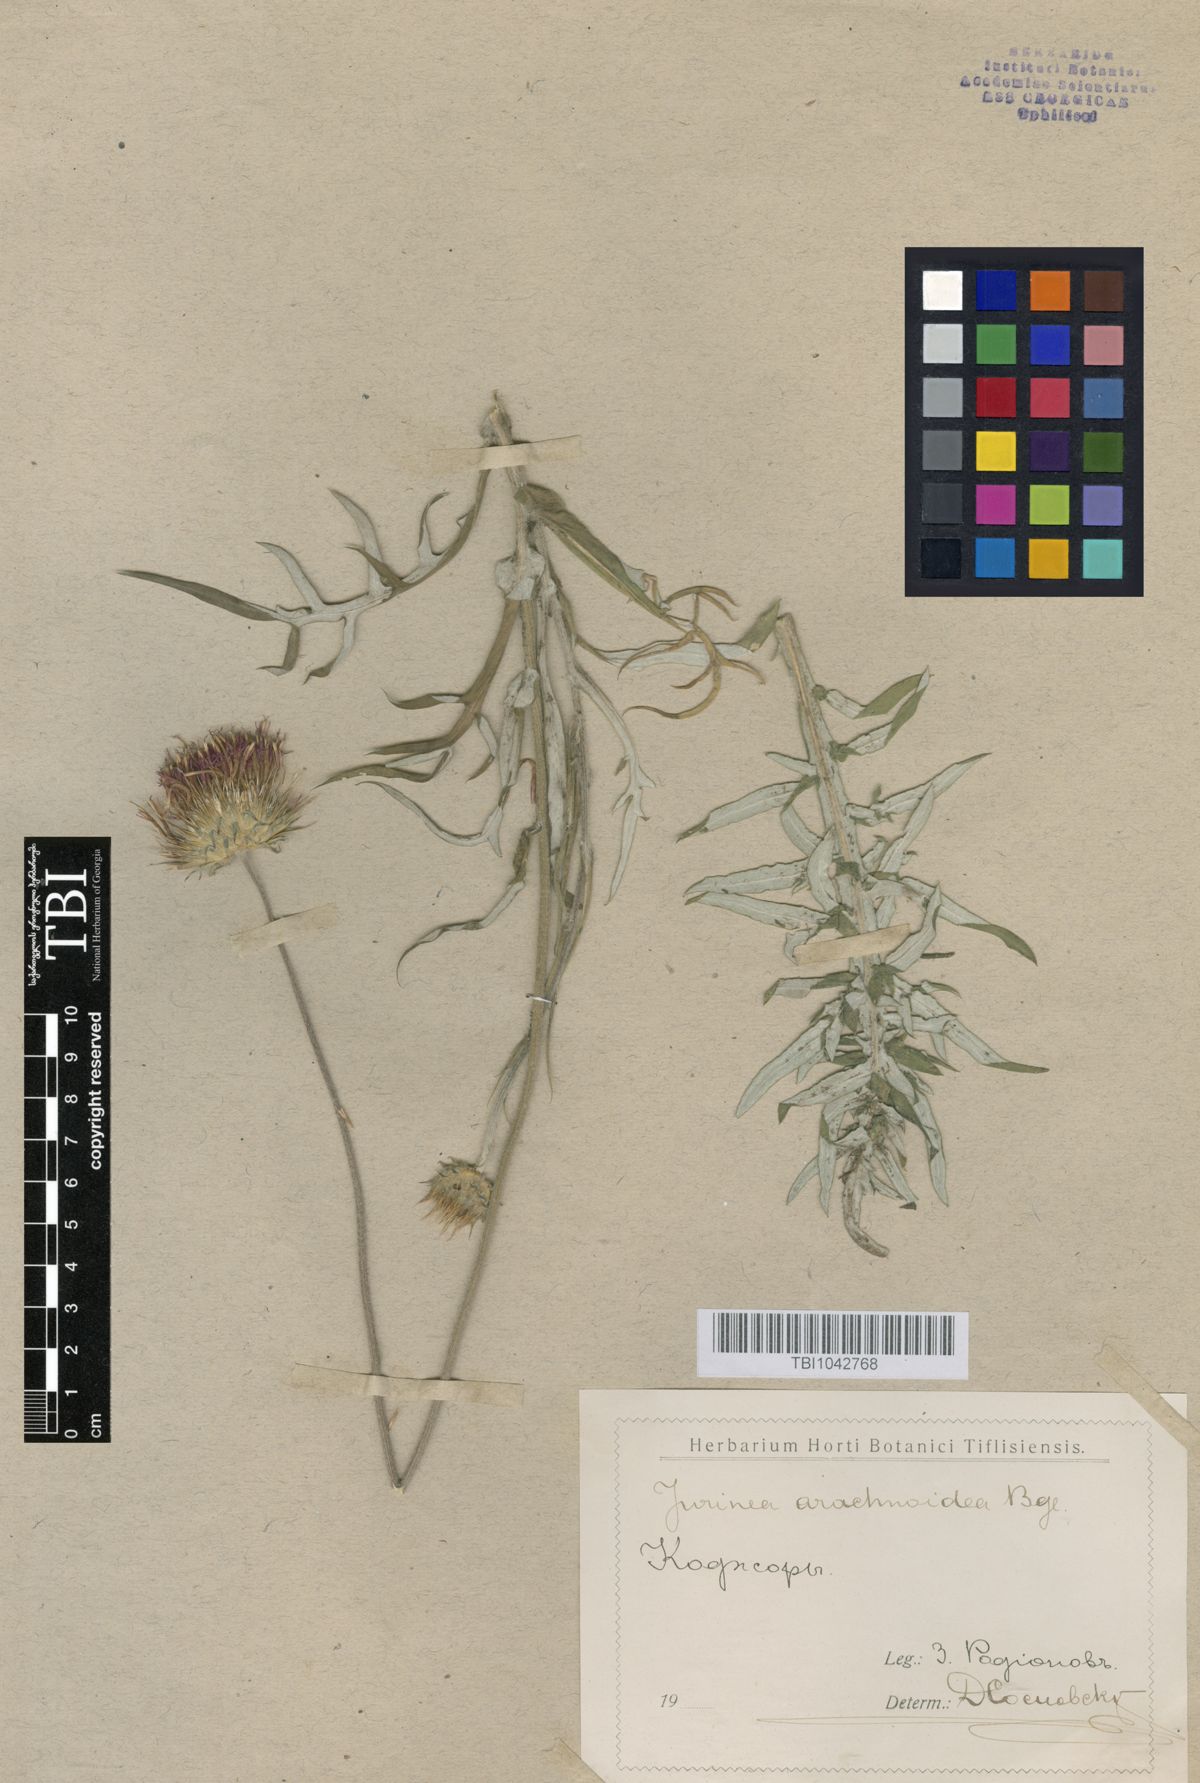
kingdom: Plantae
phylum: Tracheophyta
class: Magnoliopsida
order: Asterales
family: Asteraceae
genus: Jurinea
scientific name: Jurinea blanda
